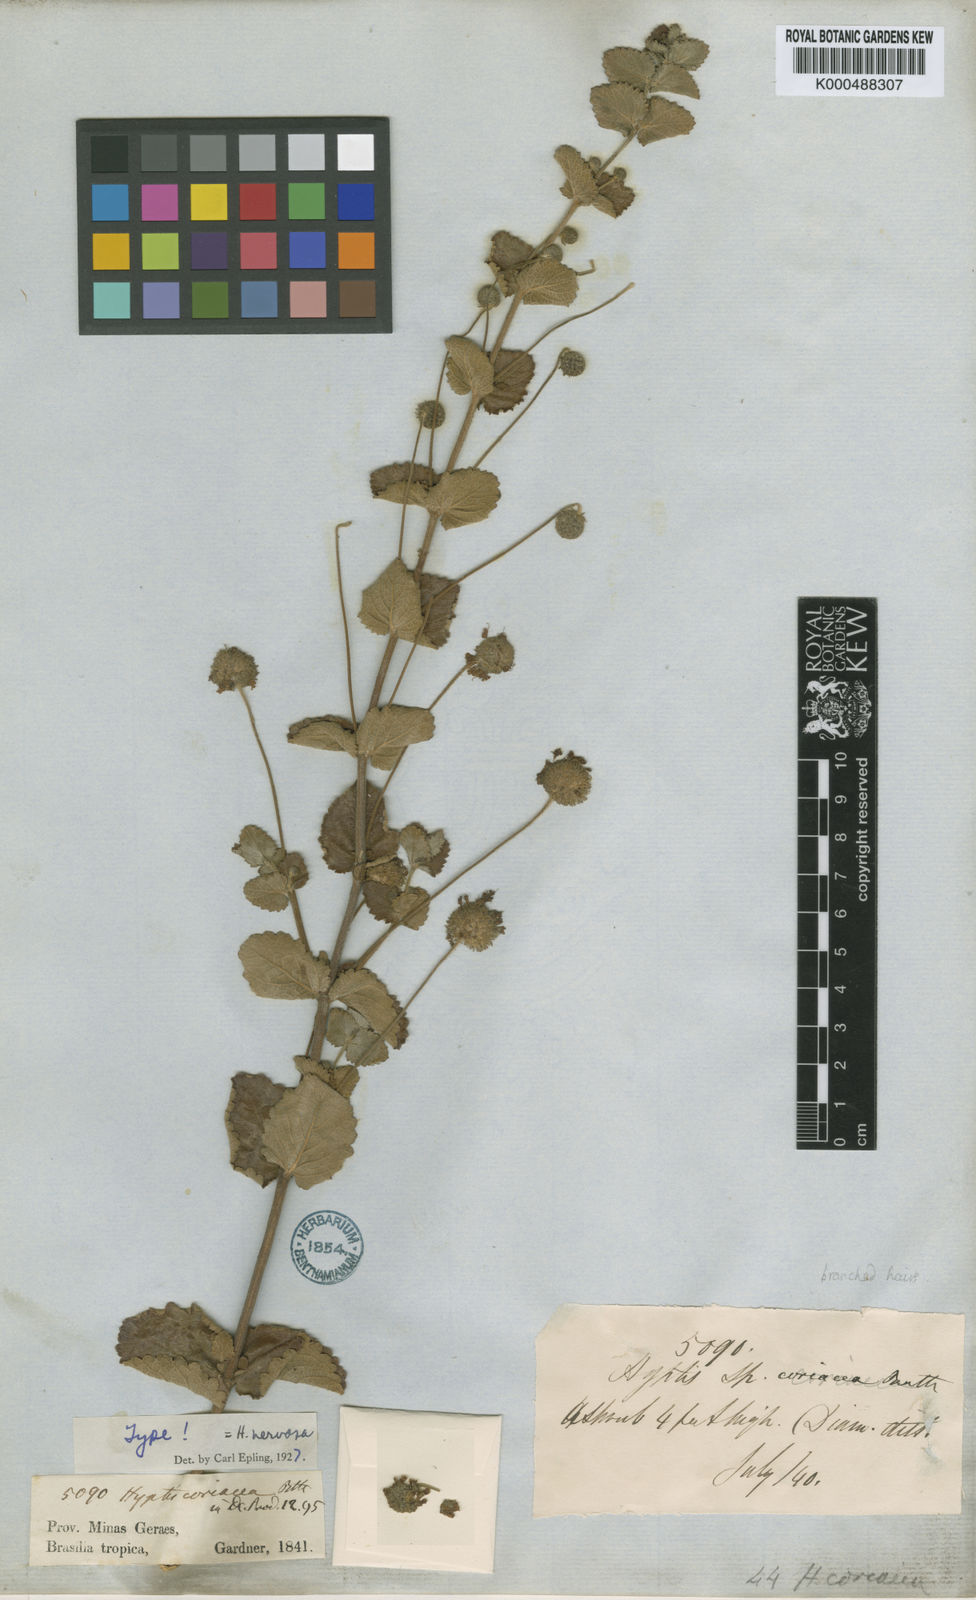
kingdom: Plantae
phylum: Tracheophyta
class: Magnoliopsida
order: Lamiales
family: Lamiaceae
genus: Cyanocephalus
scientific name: Cyanocephalus coriaceus
